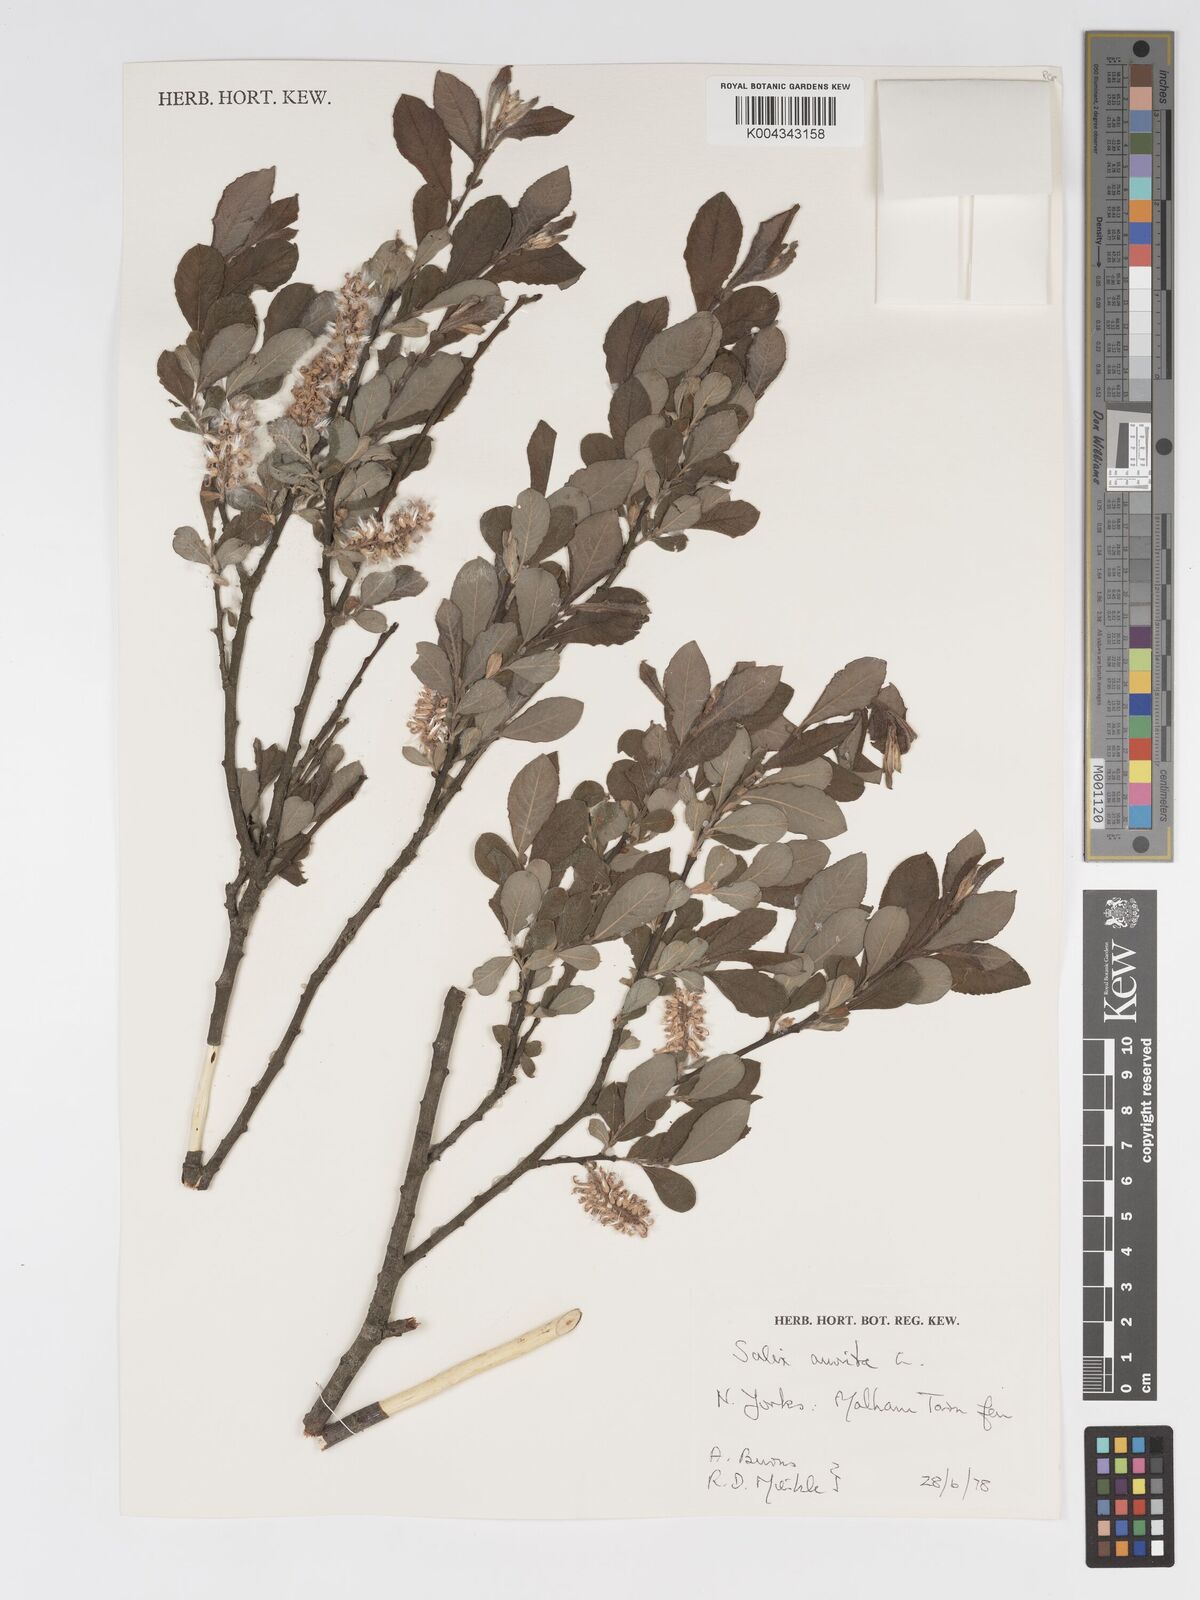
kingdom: Plantae
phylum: Tracheophyta
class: Magnoliopsida
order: Malpighiales
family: Salicaceae
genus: Salix
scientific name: Salix aurita
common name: Eared willow
